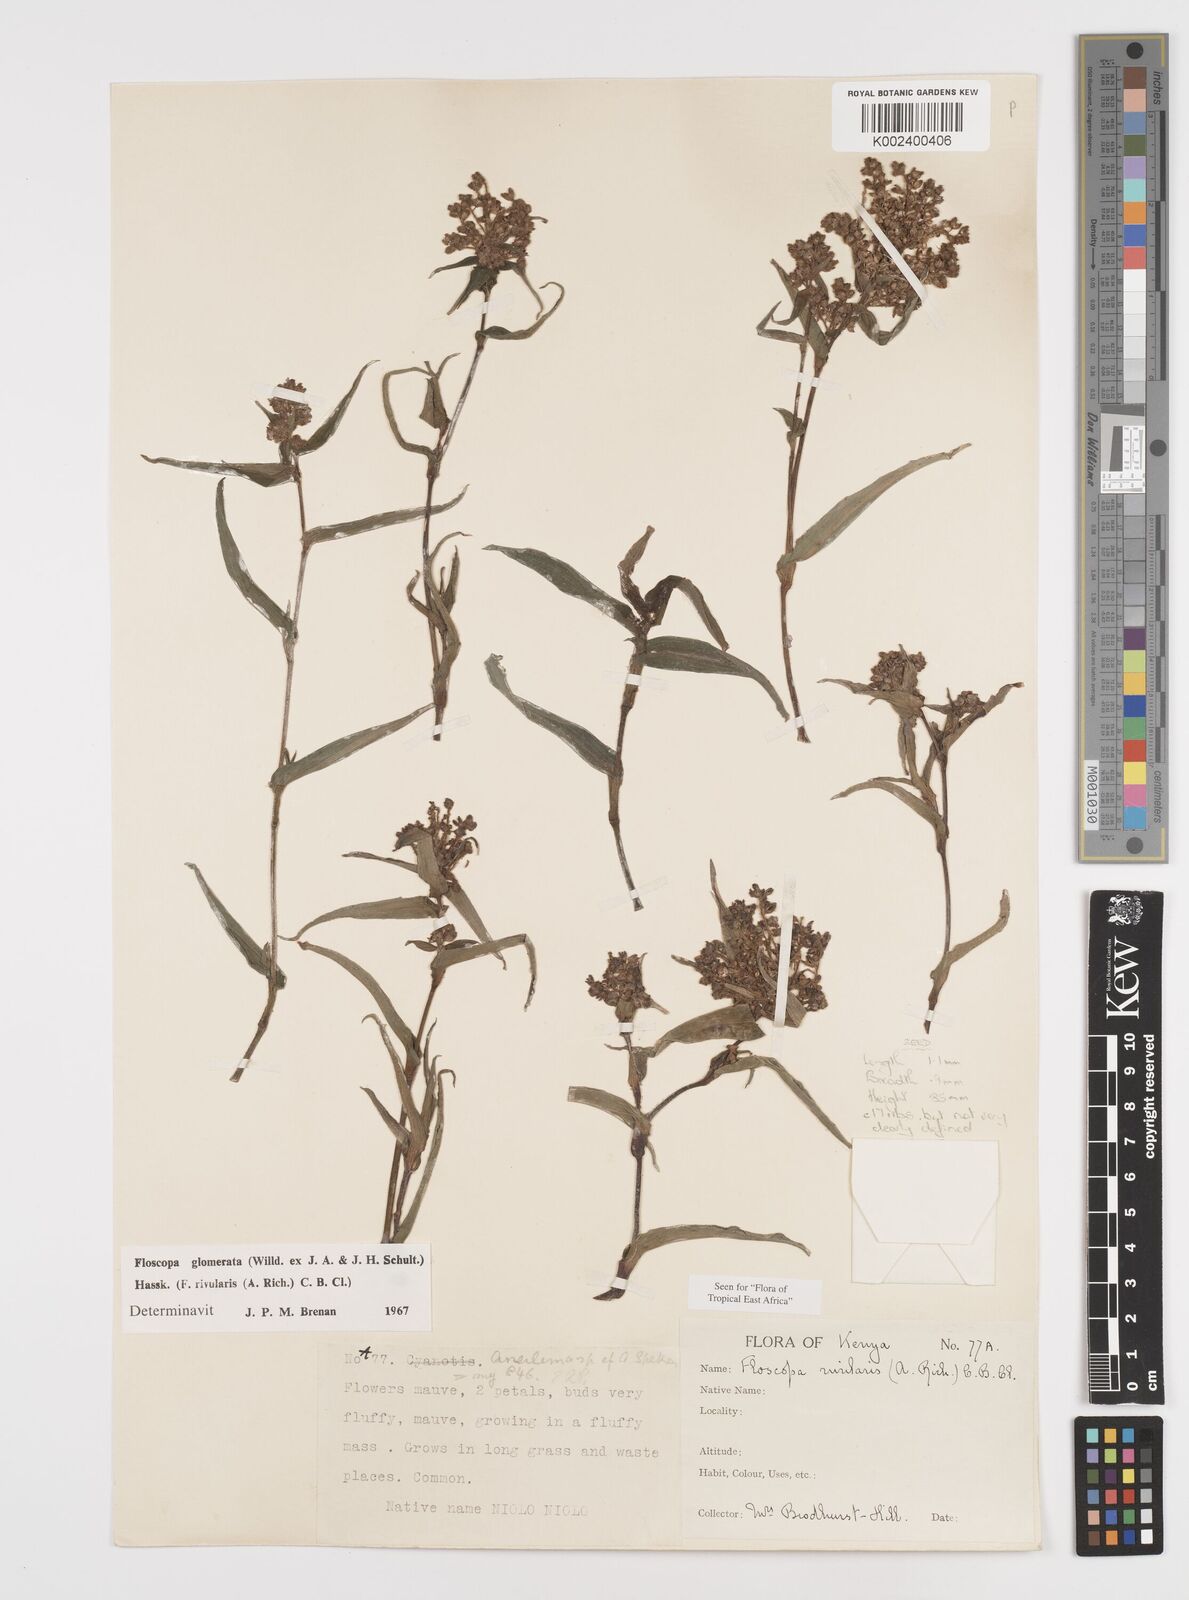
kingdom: Plantae
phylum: Tracheophyta
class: Liliopsida
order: Commelinales
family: Commelinaceae
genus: Floscopa
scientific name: Floscopa glomerata
